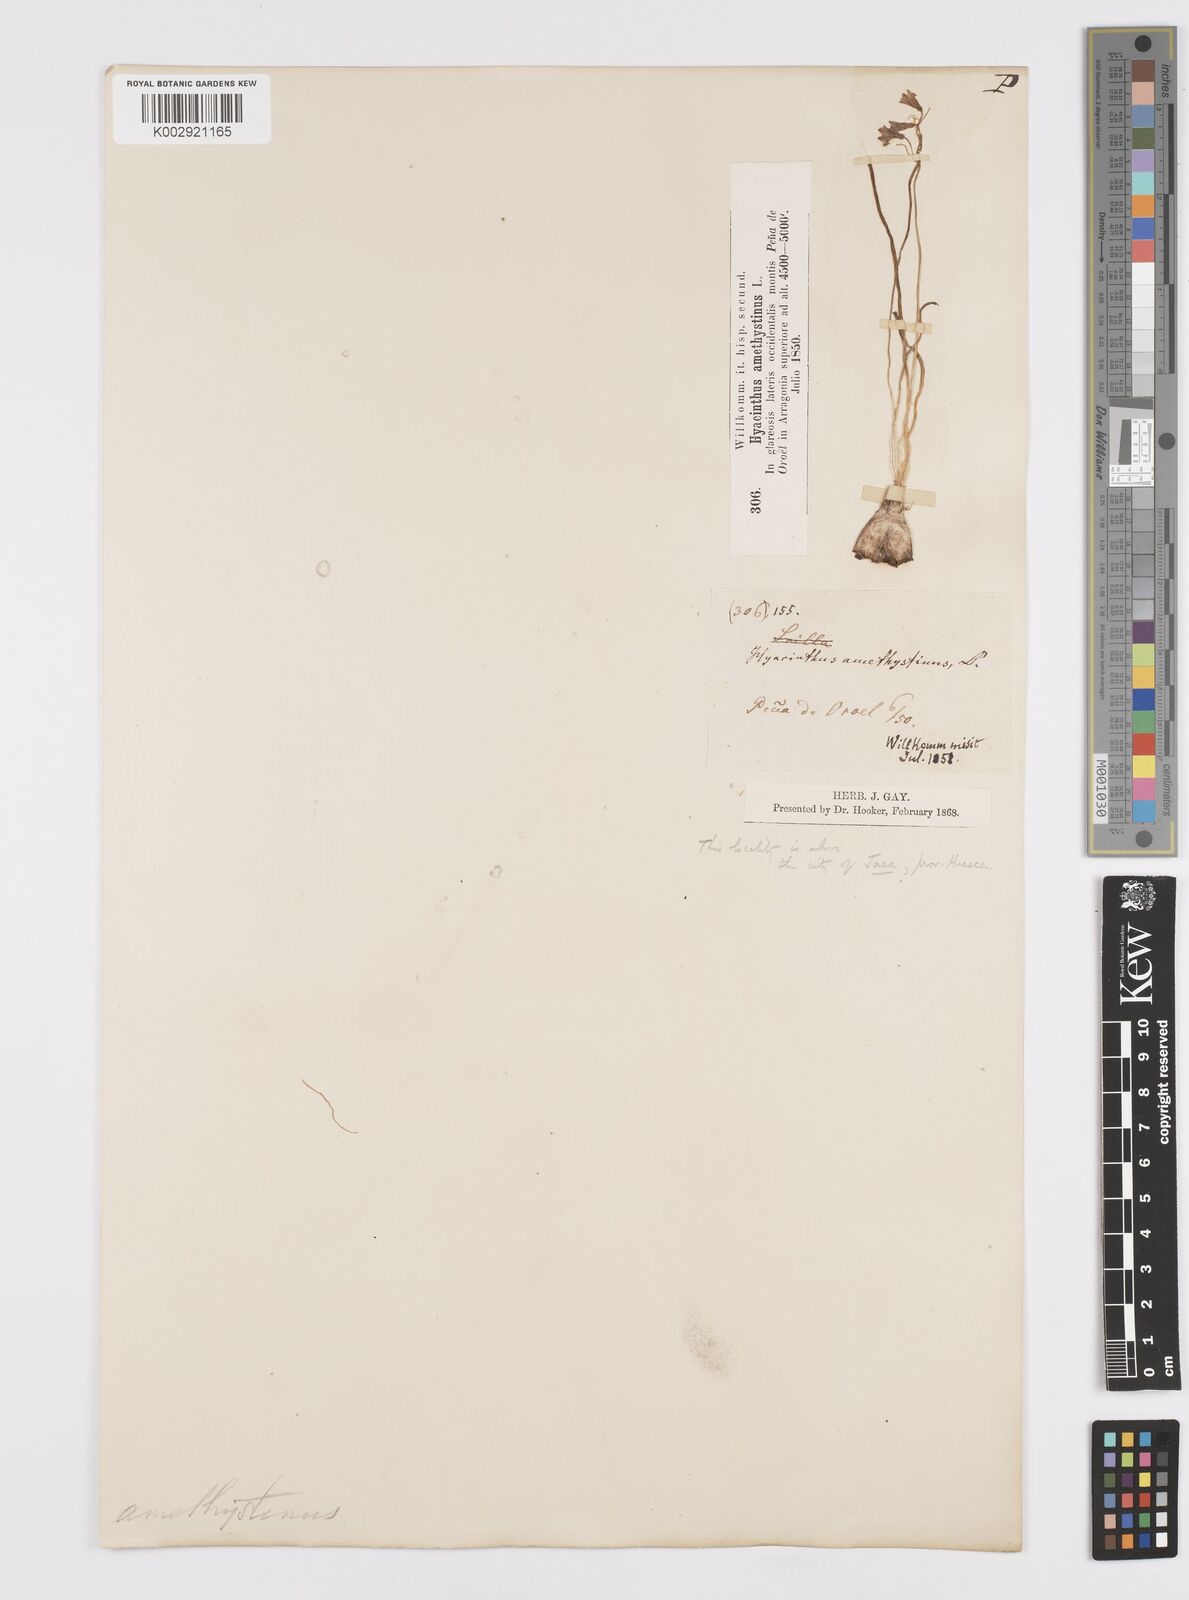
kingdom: Plantae
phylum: Tracheophyta
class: Liliopsida
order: Asparagales
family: Asparagaceae
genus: Brimeura
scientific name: Brimeura
